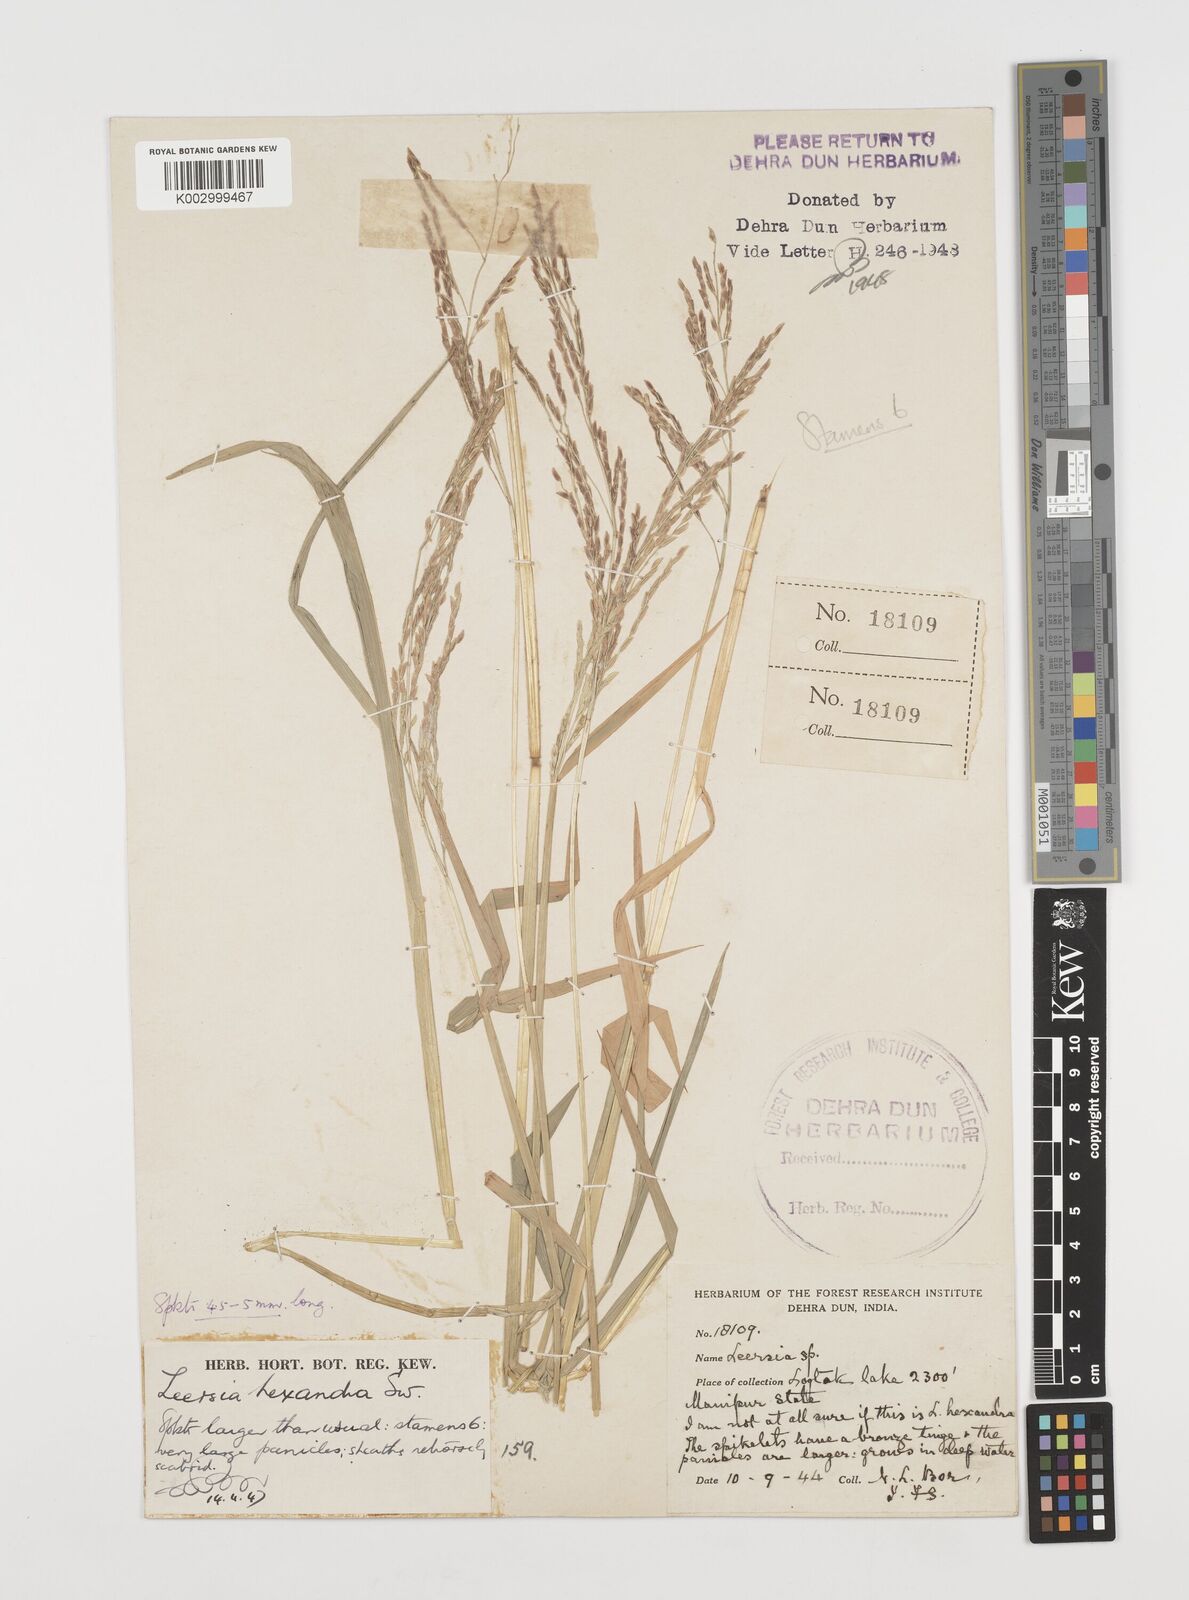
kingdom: Plantae
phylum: Tracheophyta
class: Liliopsida
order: Poales
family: Poaceae
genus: Leersia
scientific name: Leersia hexandra
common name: Southern cut grass
